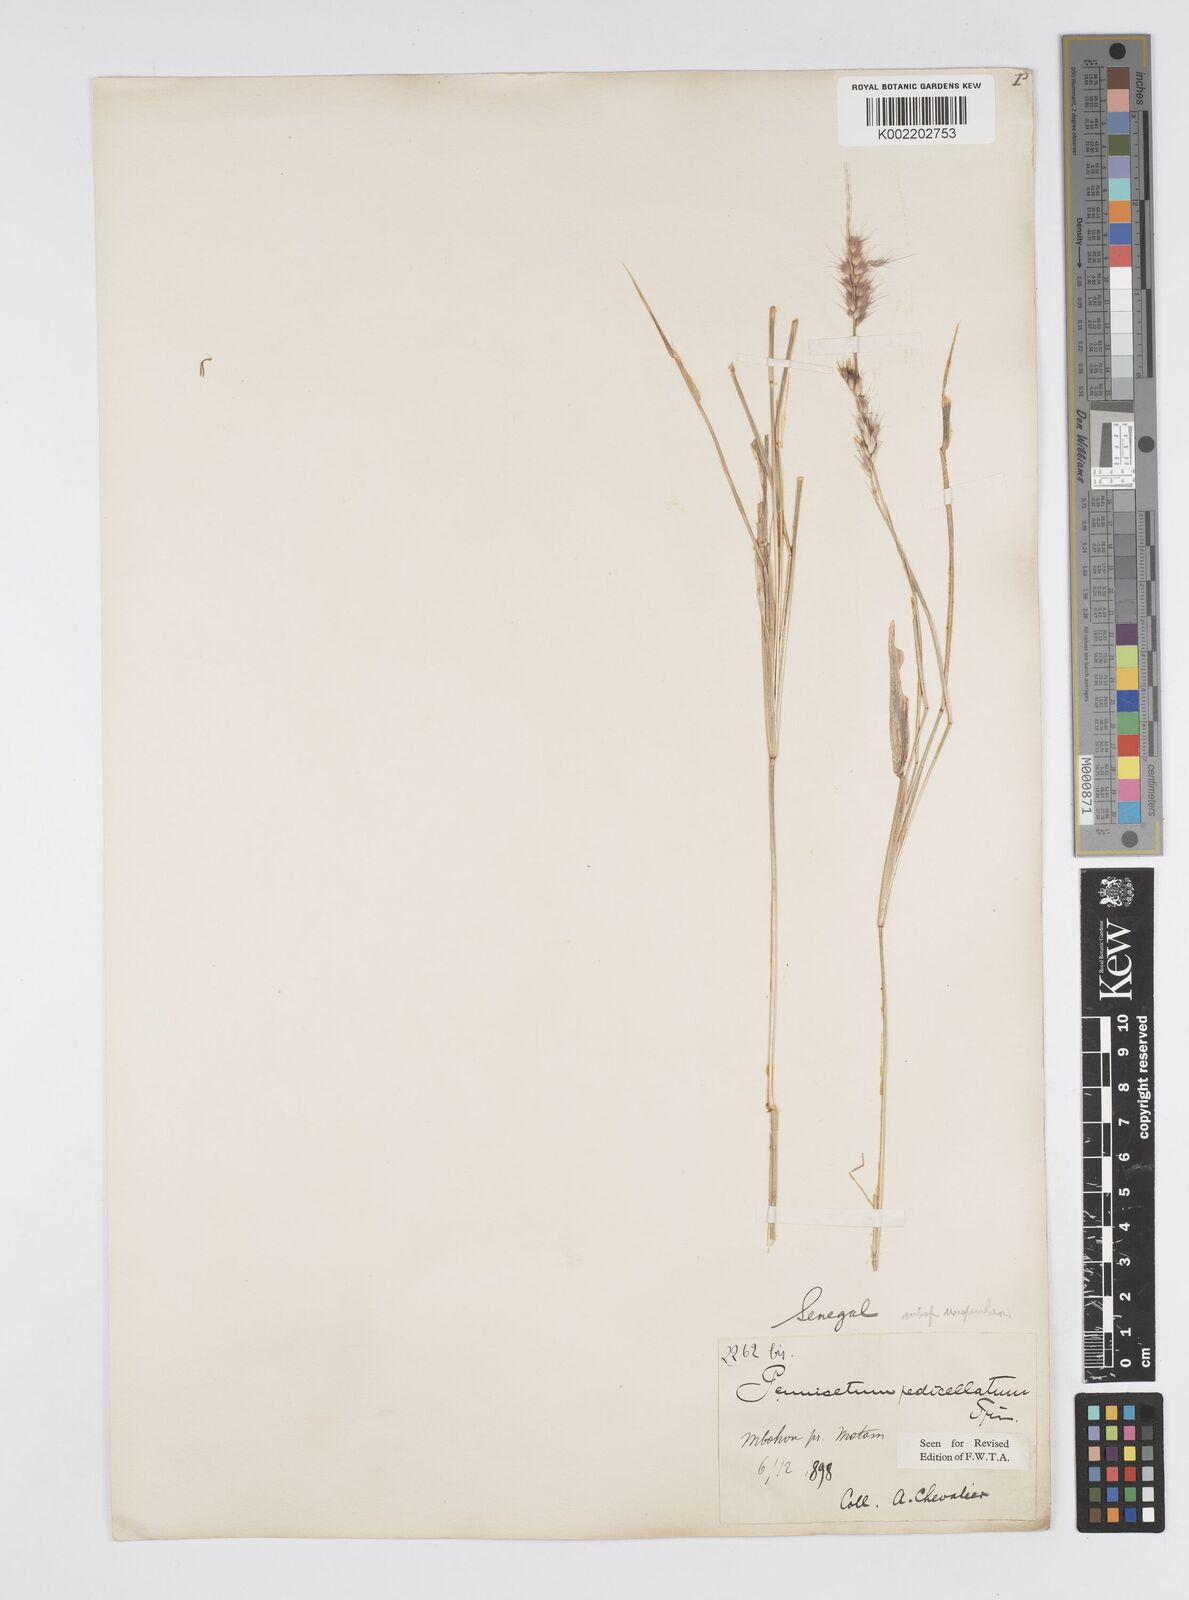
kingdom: Plantae
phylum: Tracheophyta
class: Liliopsida
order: Poales
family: Poaceae
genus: Cenchrus
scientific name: Cenchrus pedicellatus
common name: Hairy fountain grass
